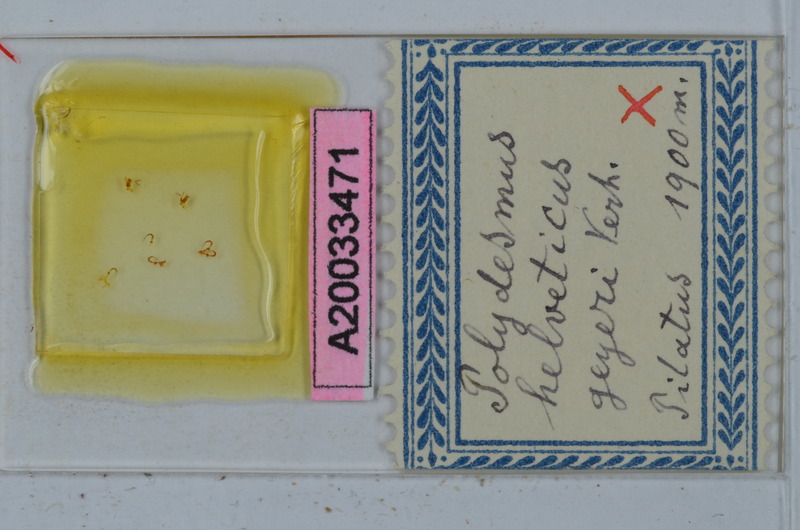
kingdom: Animalia
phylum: Arthropoda
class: Diplopoda
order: Polydesmida
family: Polydesmidae
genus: Propolydesmus
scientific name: Propolydesmus helveticus
